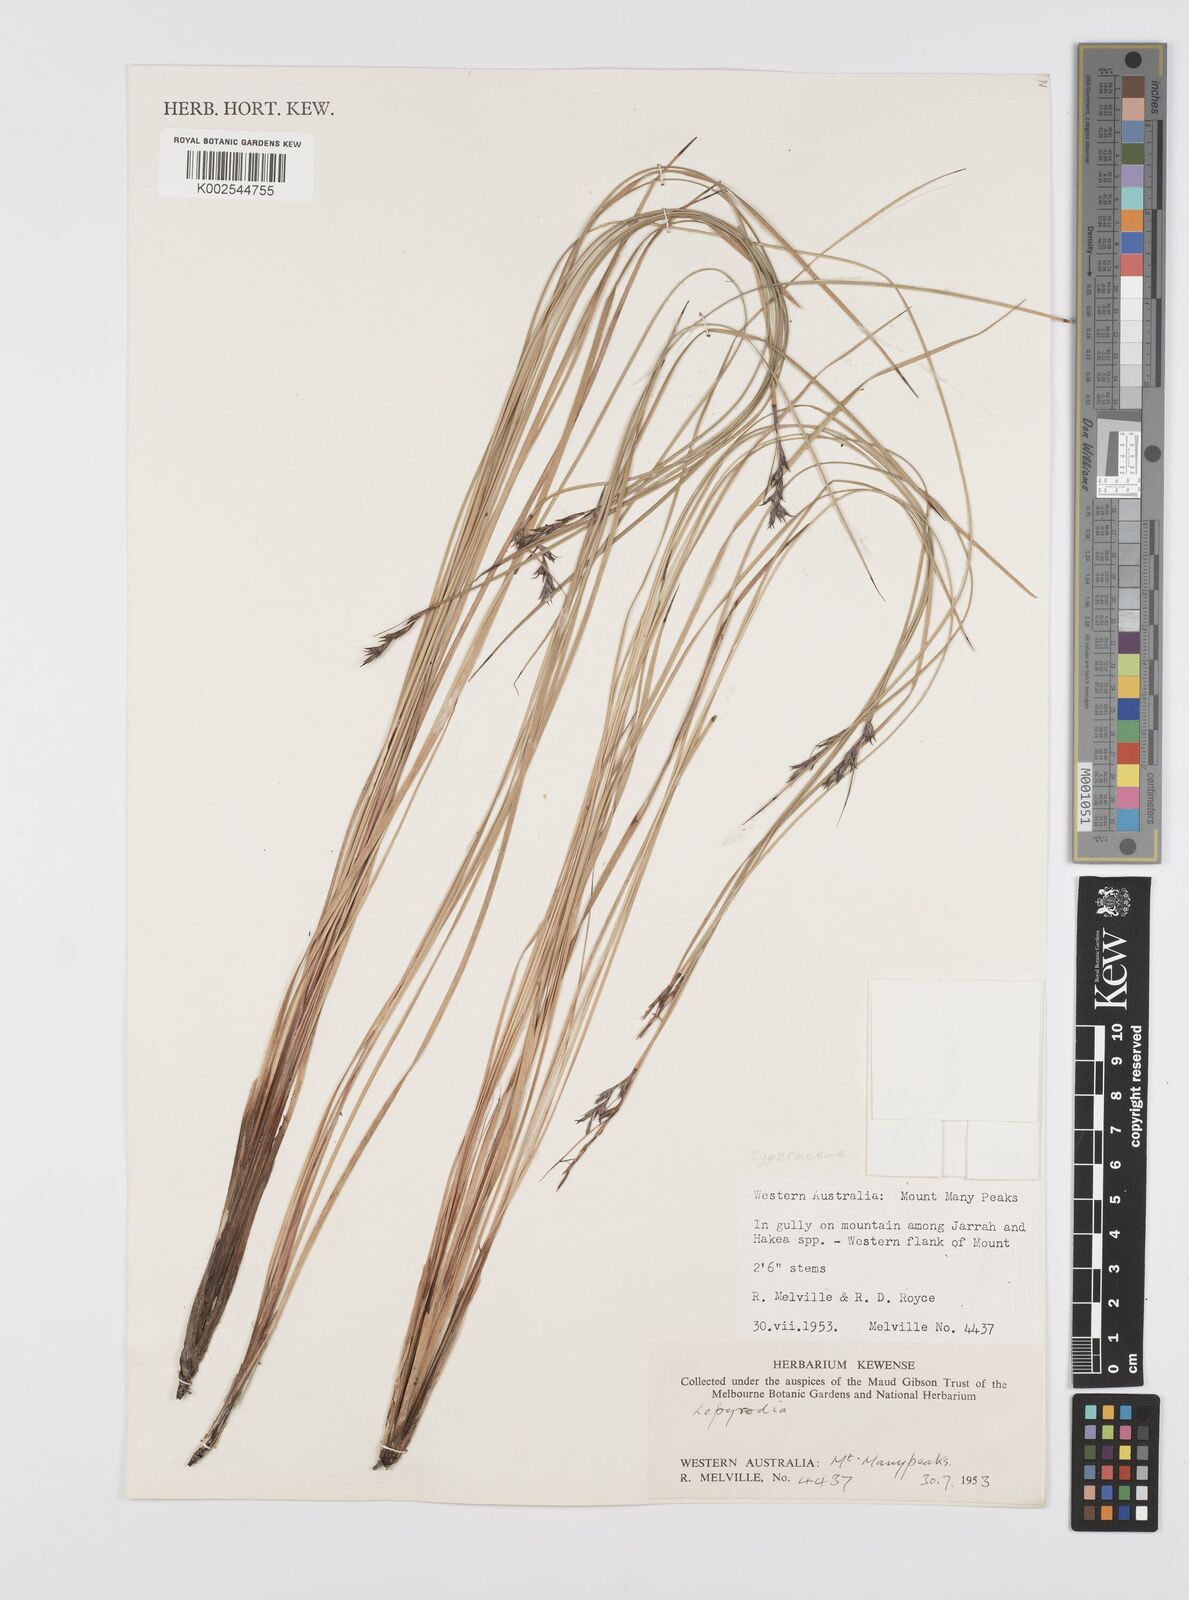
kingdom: Plantae
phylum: Tracheophyta
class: Liliopsida
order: Poales
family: Cyperaceae
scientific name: Cyperaceae
